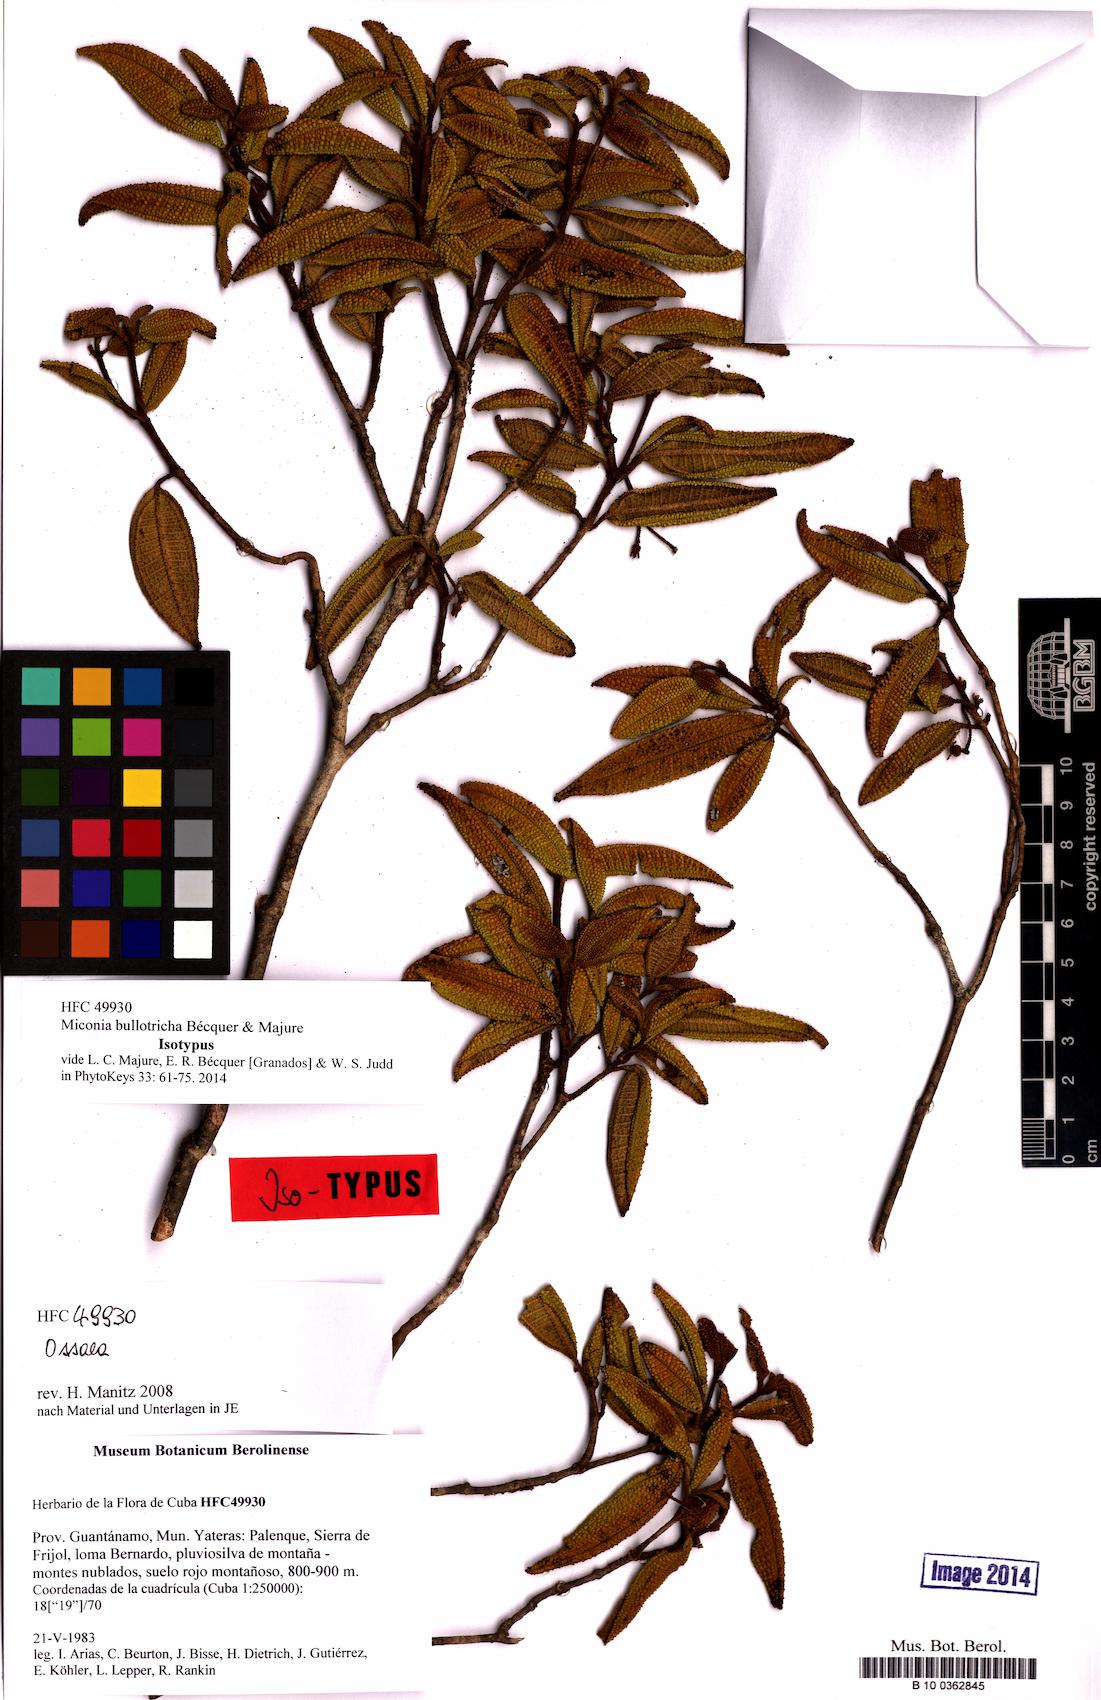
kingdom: Plantae
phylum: Tracheophyta
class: Magnoliopsida
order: Myrtales
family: Melastomataceae
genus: Miconia
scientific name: Miconia bullotricha
